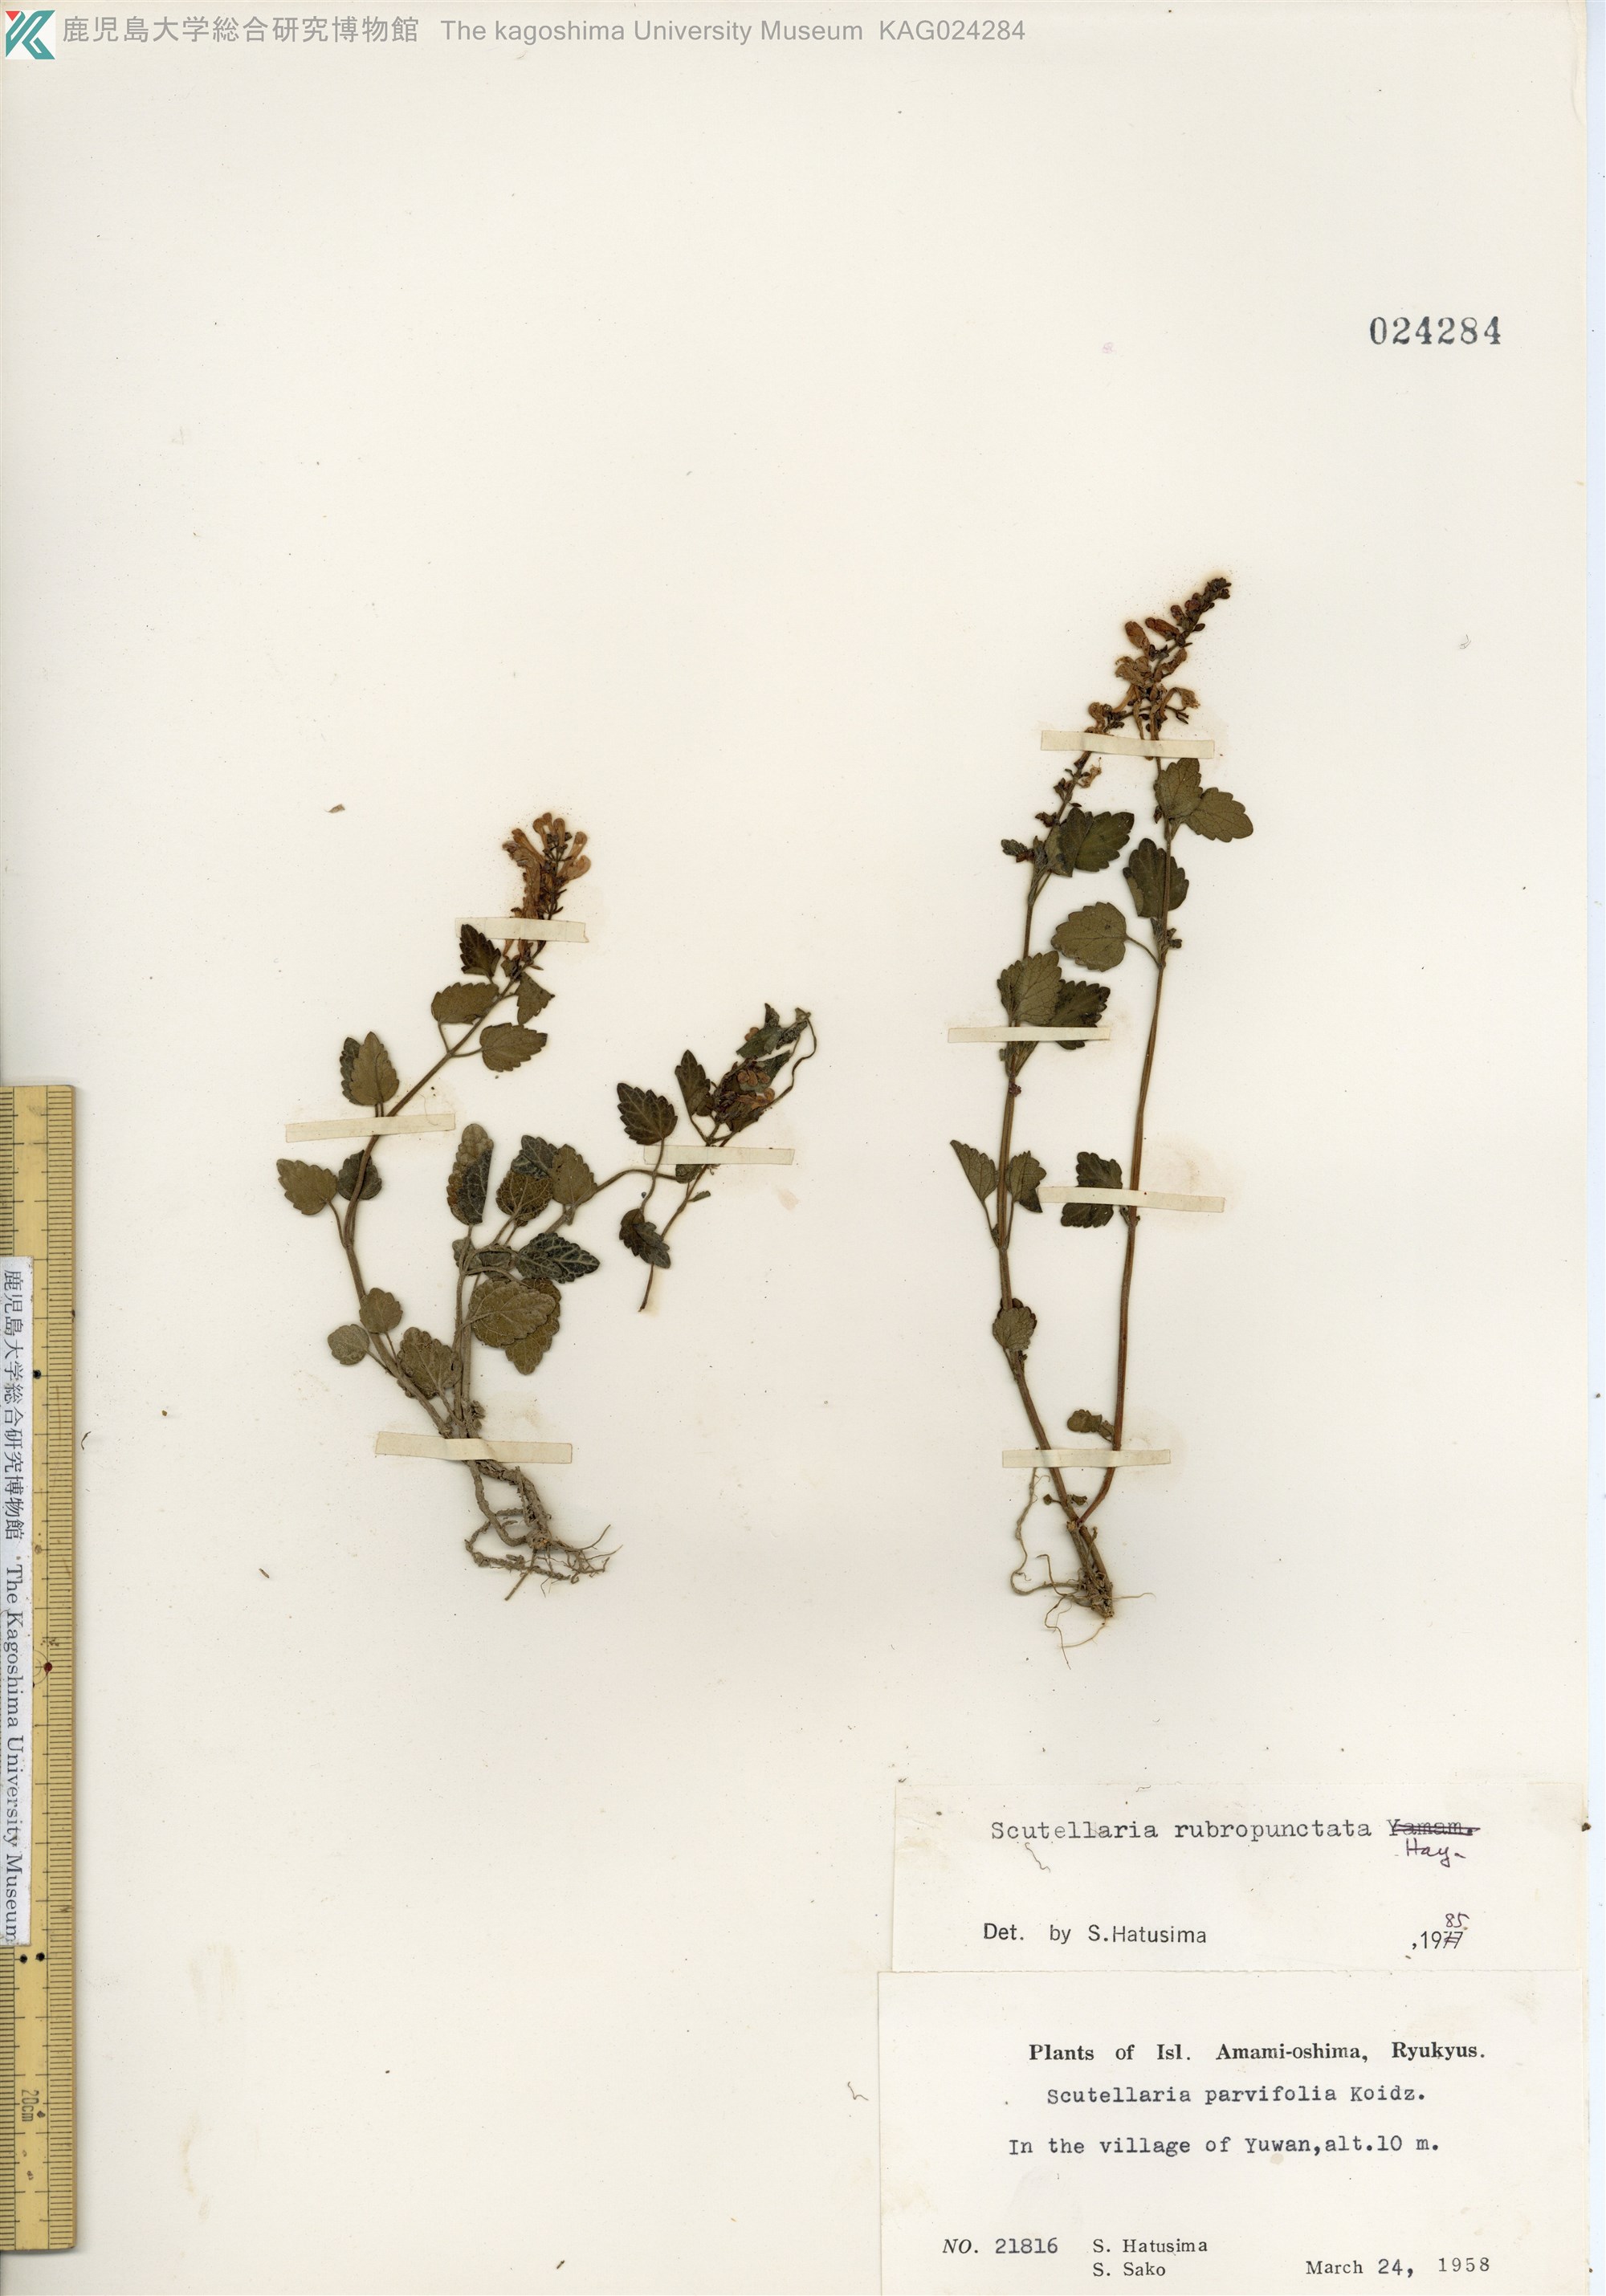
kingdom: Plantae
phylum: Tracheophyta
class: Magnoliopsida
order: Lamiales
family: Lamiaceae
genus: Scutellaria
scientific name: Scutellaria rubropunctata
